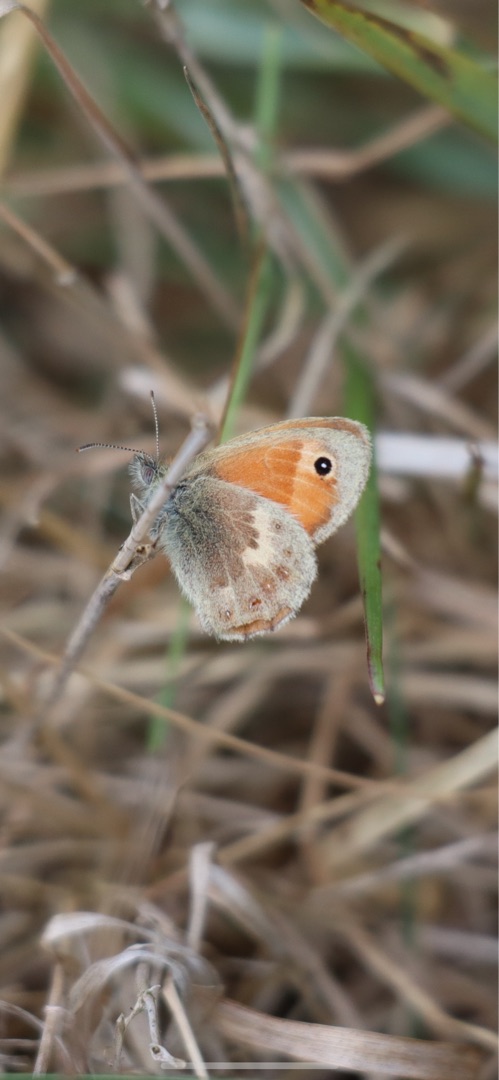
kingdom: Animalia
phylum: Arthropoda
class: Insecta
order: Lepidoptera
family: Nymphalidae
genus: Coenonympha
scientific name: Coenonympha pamphilus
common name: Okkergul randøje
